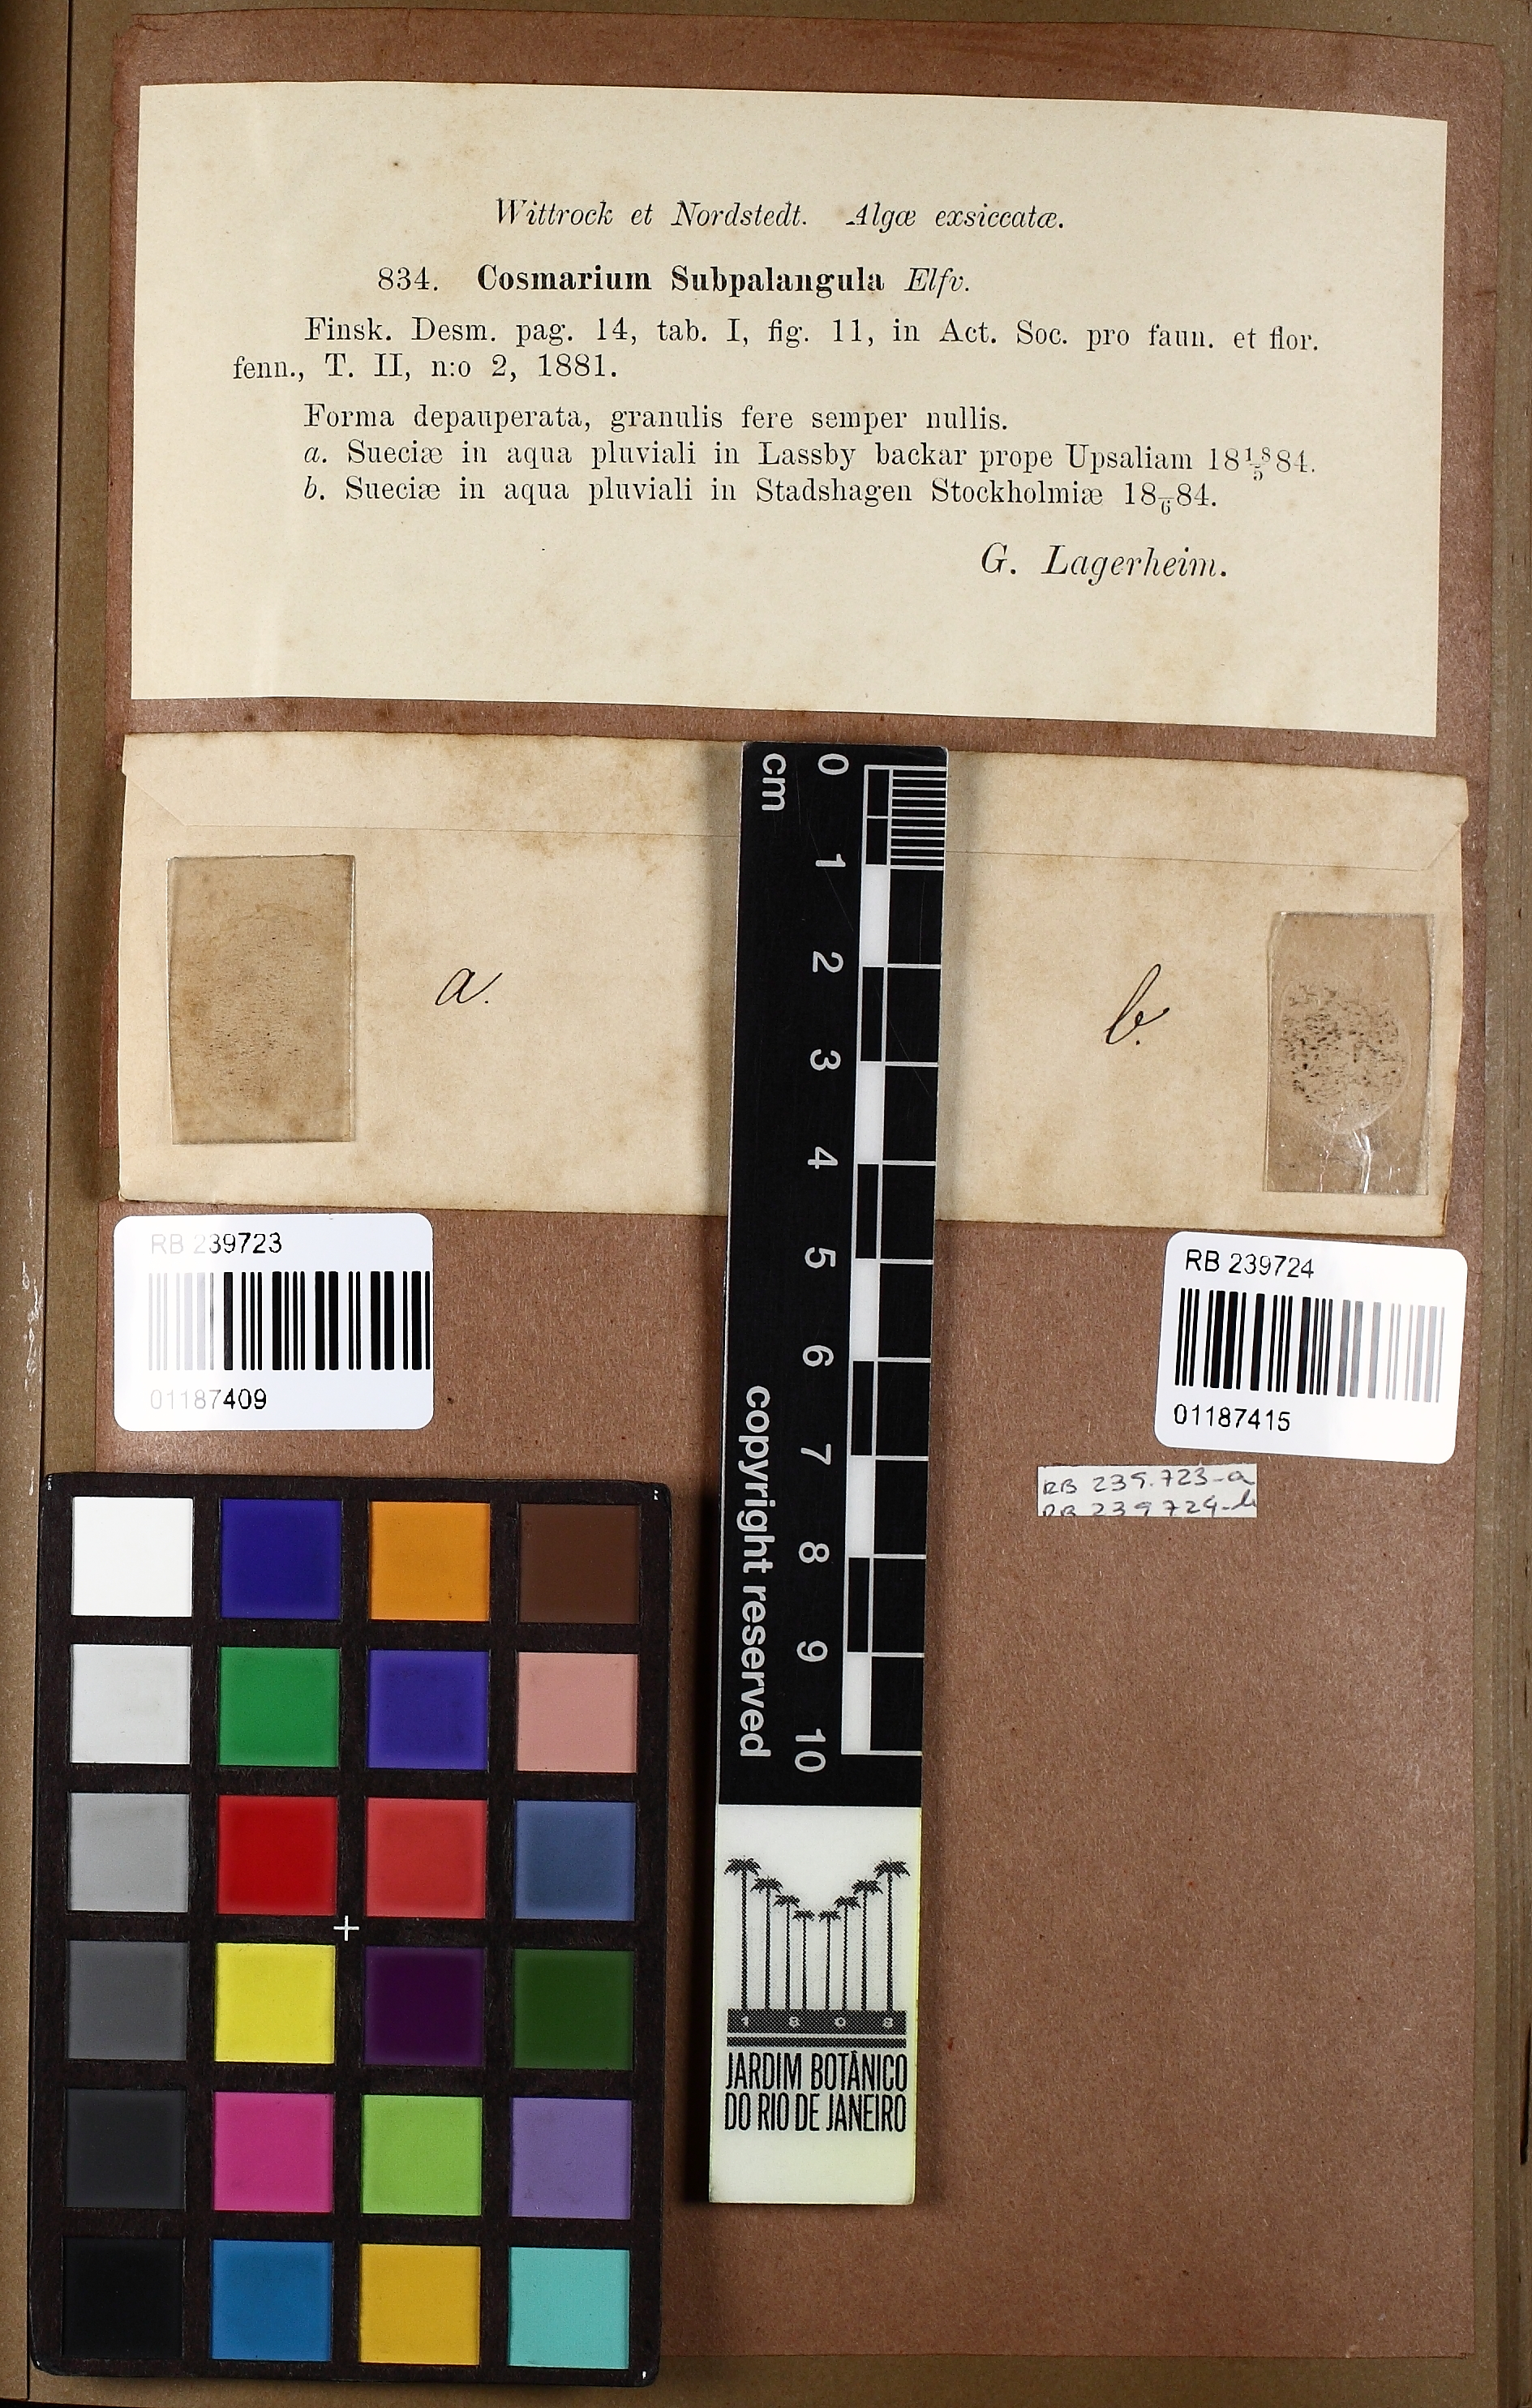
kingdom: Plantae
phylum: Charophyta
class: Zygnematophyceae
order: Zygnematales
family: Desmidiaceae
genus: Actinotaenium
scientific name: Actinotaenium subpalangula
